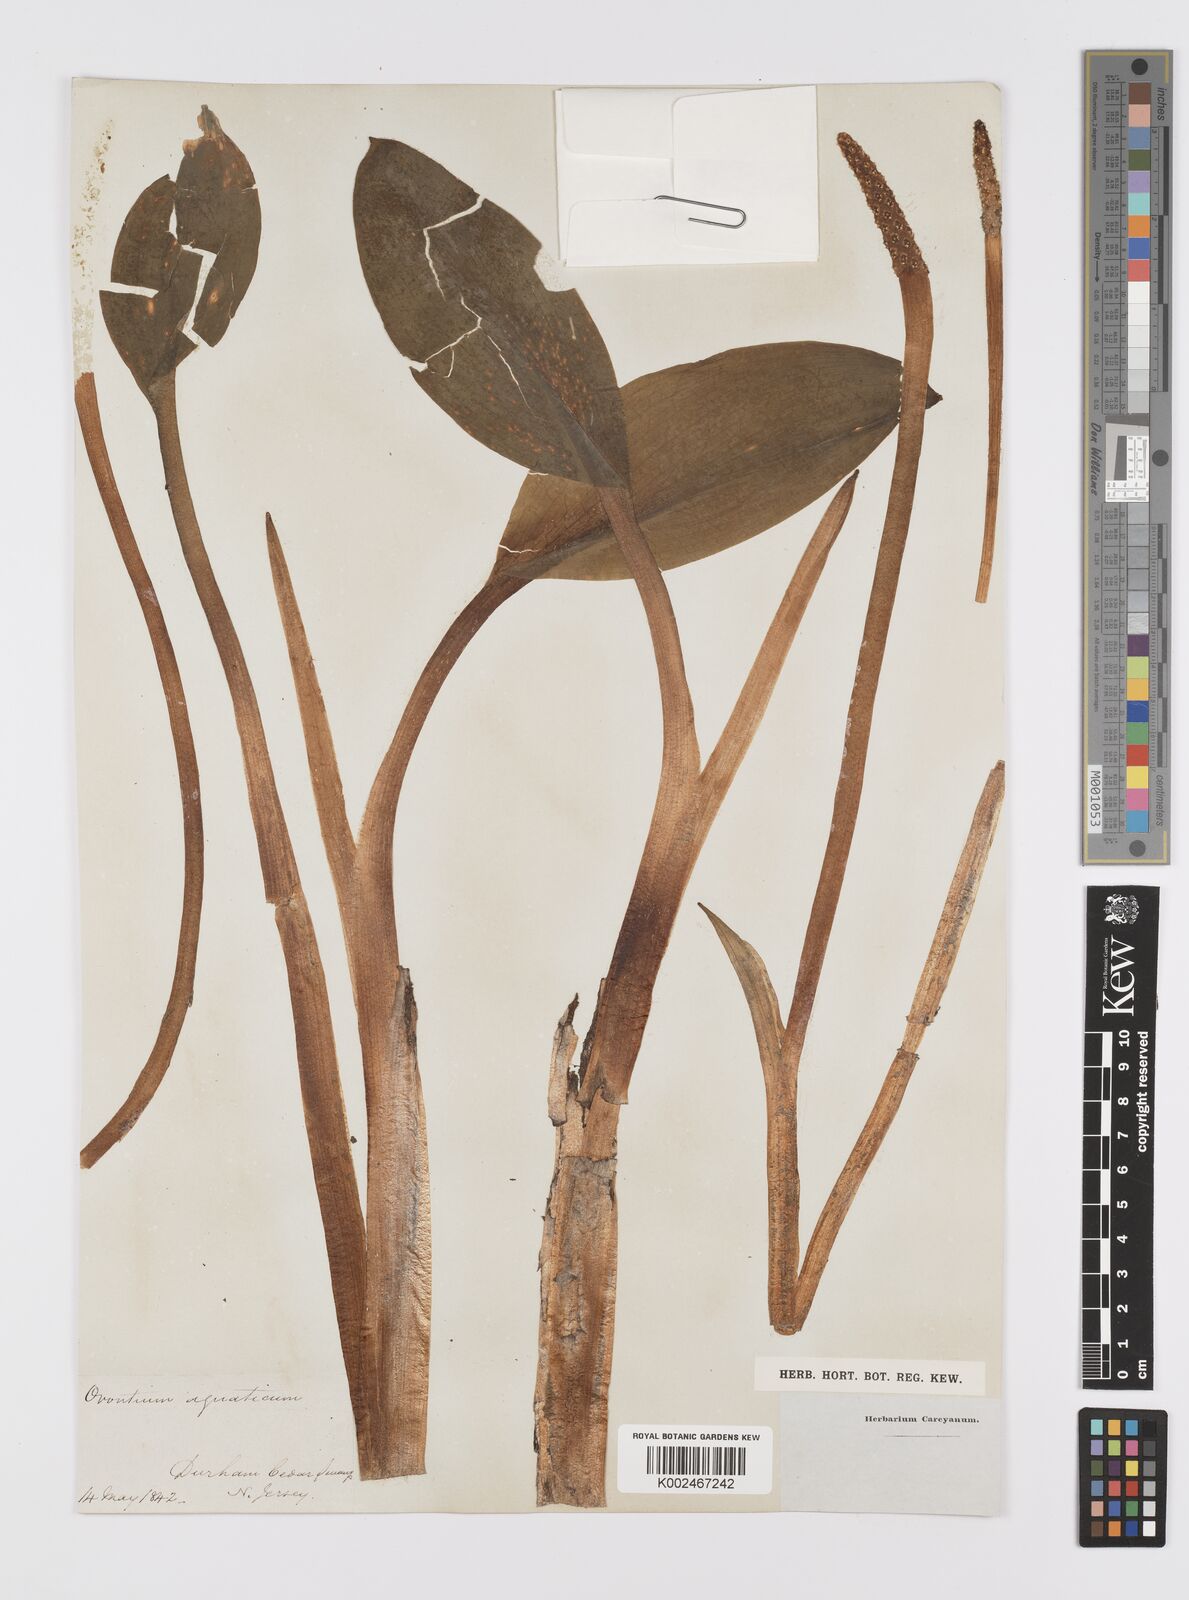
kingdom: Plantae
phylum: Tracheophyta
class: Liliopsida
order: Alismatales
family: Araceae
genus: Orontium
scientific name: Orontium aquaticum
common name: Golden-club
